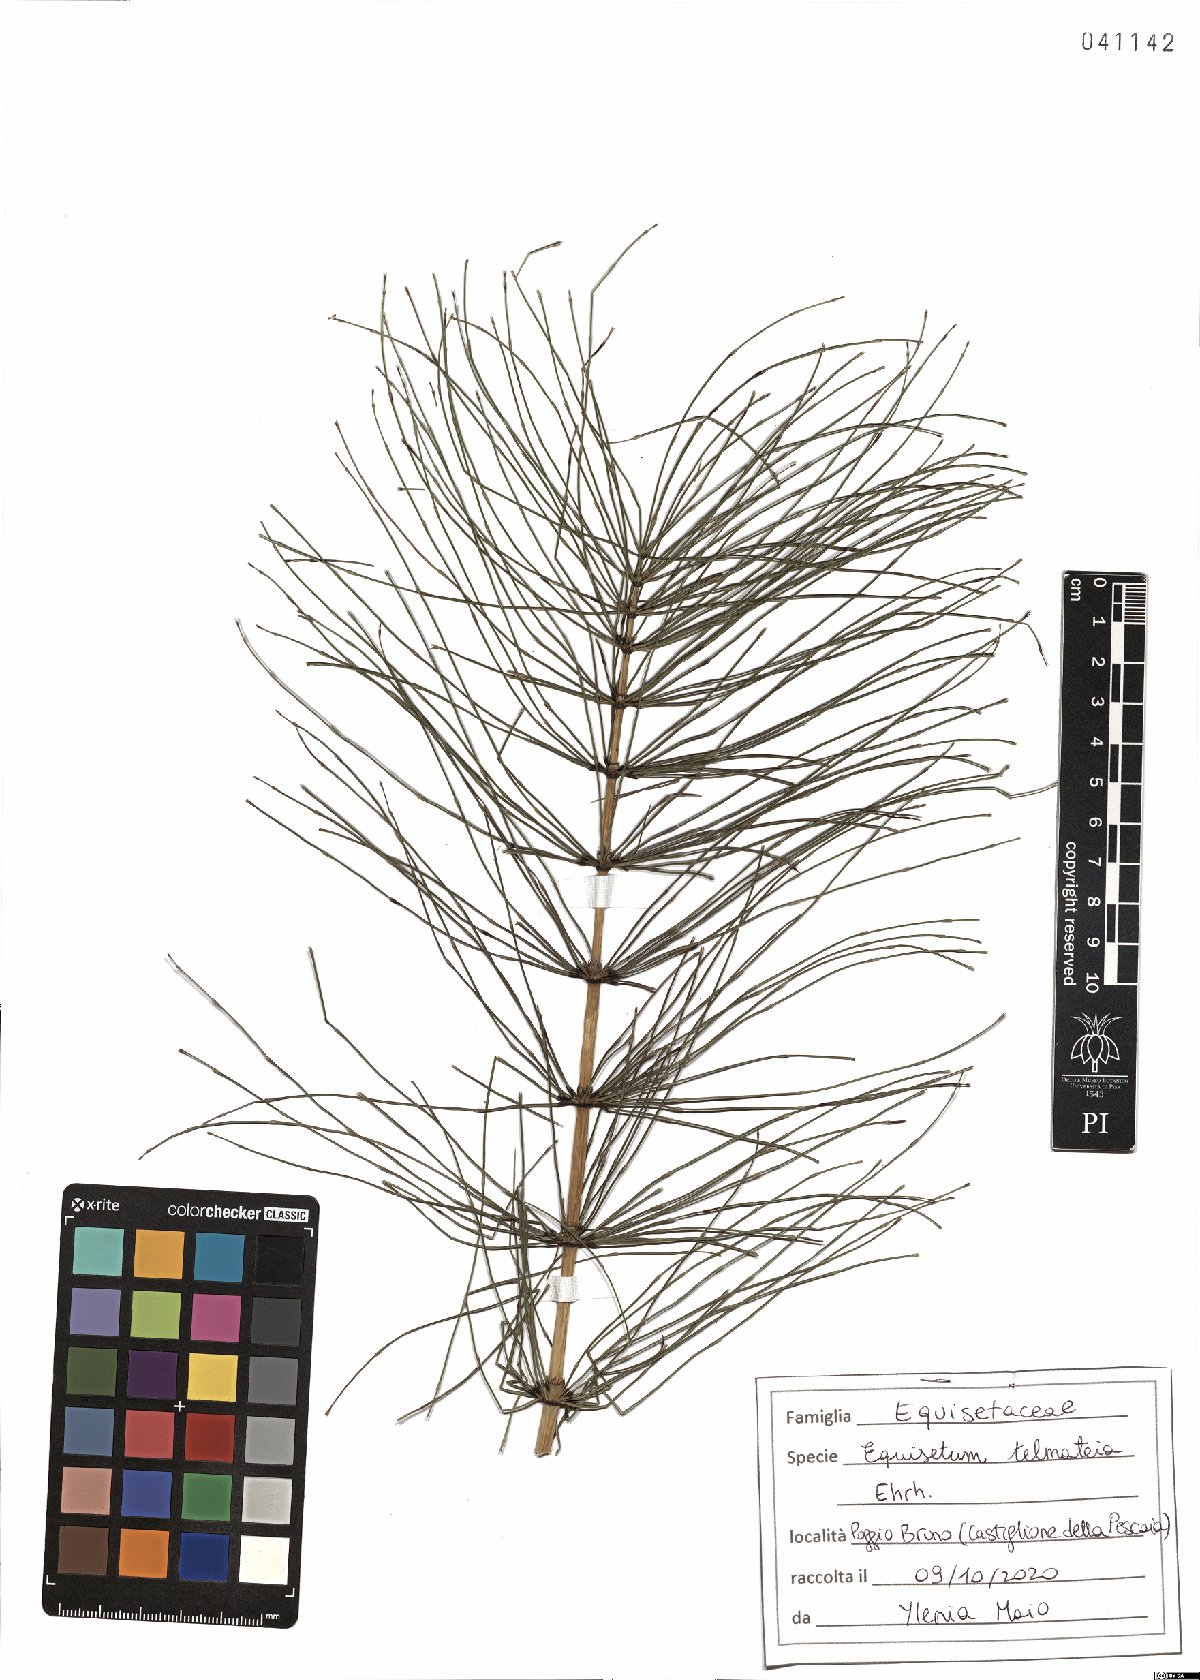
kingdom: Plantae
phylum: Tracheophyta
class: Polypodiopsida
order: Equisetales
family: Equisetaceae
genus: Equisetum
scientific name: Equisetum telmateia
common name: Great horsetail
